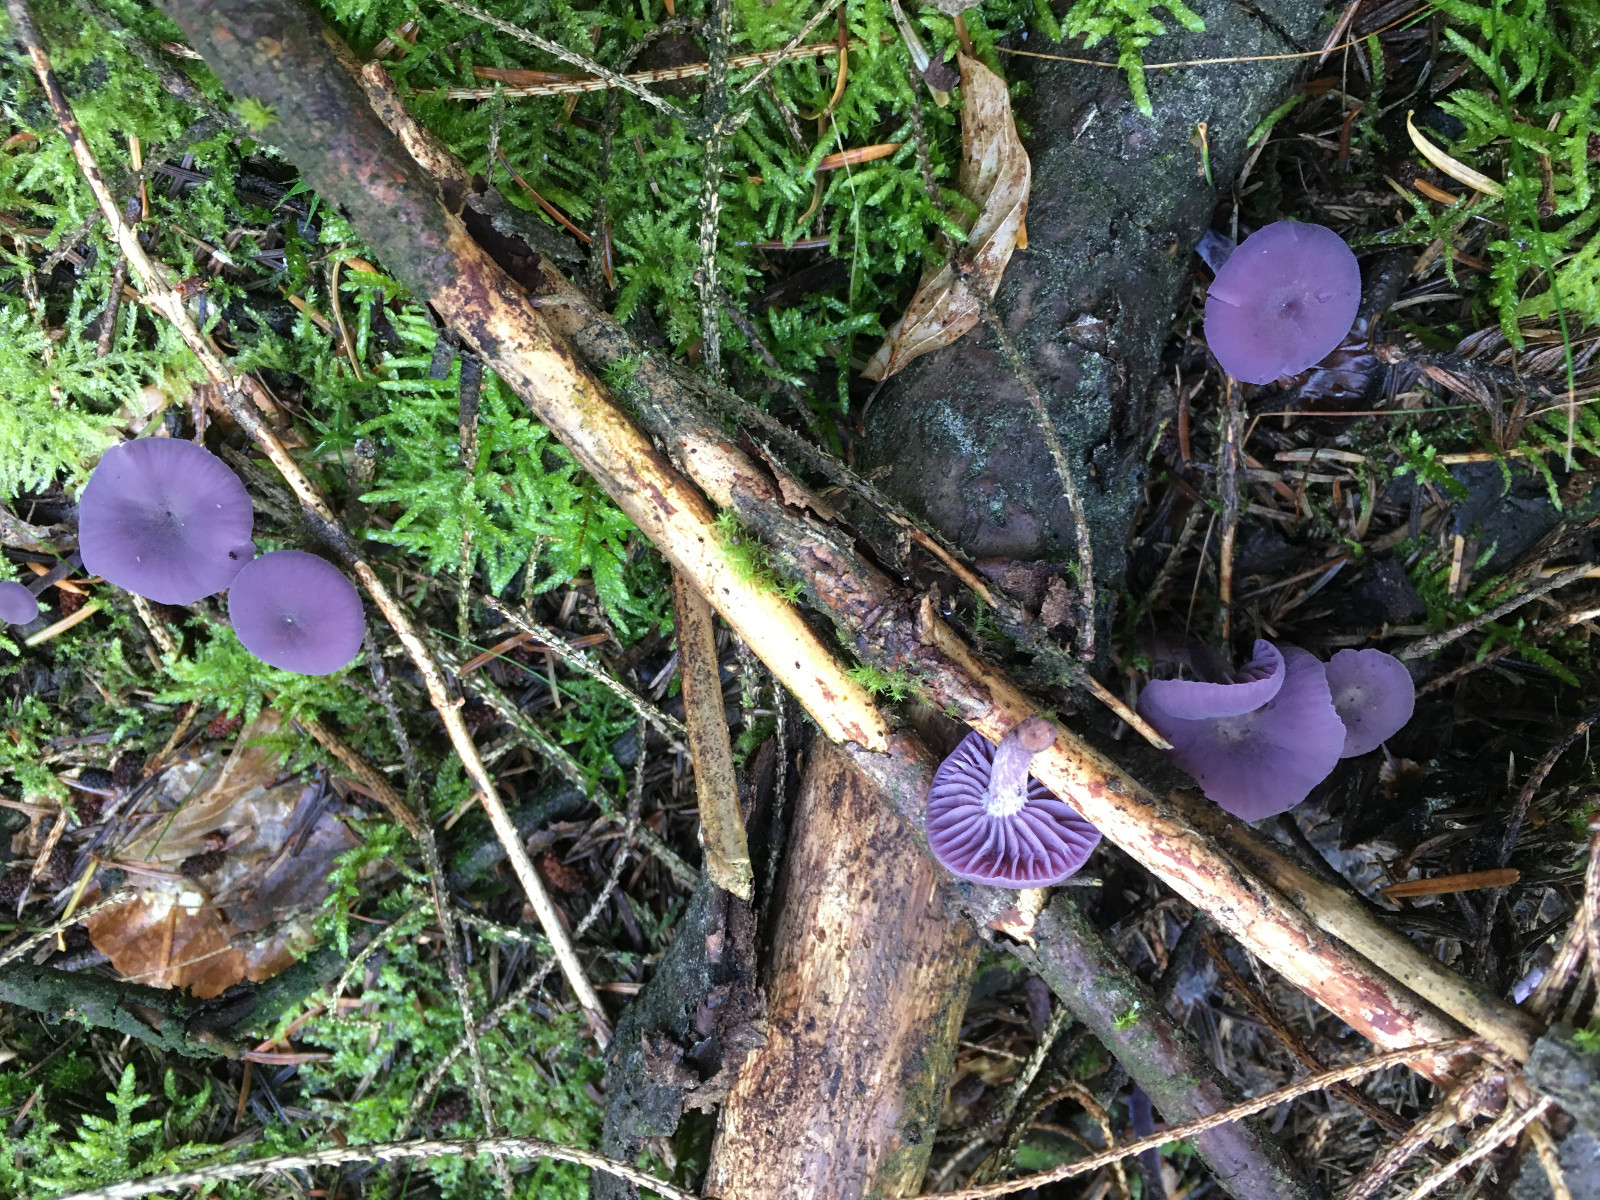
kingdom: Fungi
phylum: Basidiomycota
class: Agaricomycetes
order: Agaricales
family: Hydnangiaceae
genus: Laccaria
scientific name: Laccaria amethystina
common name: violet ametysthat
